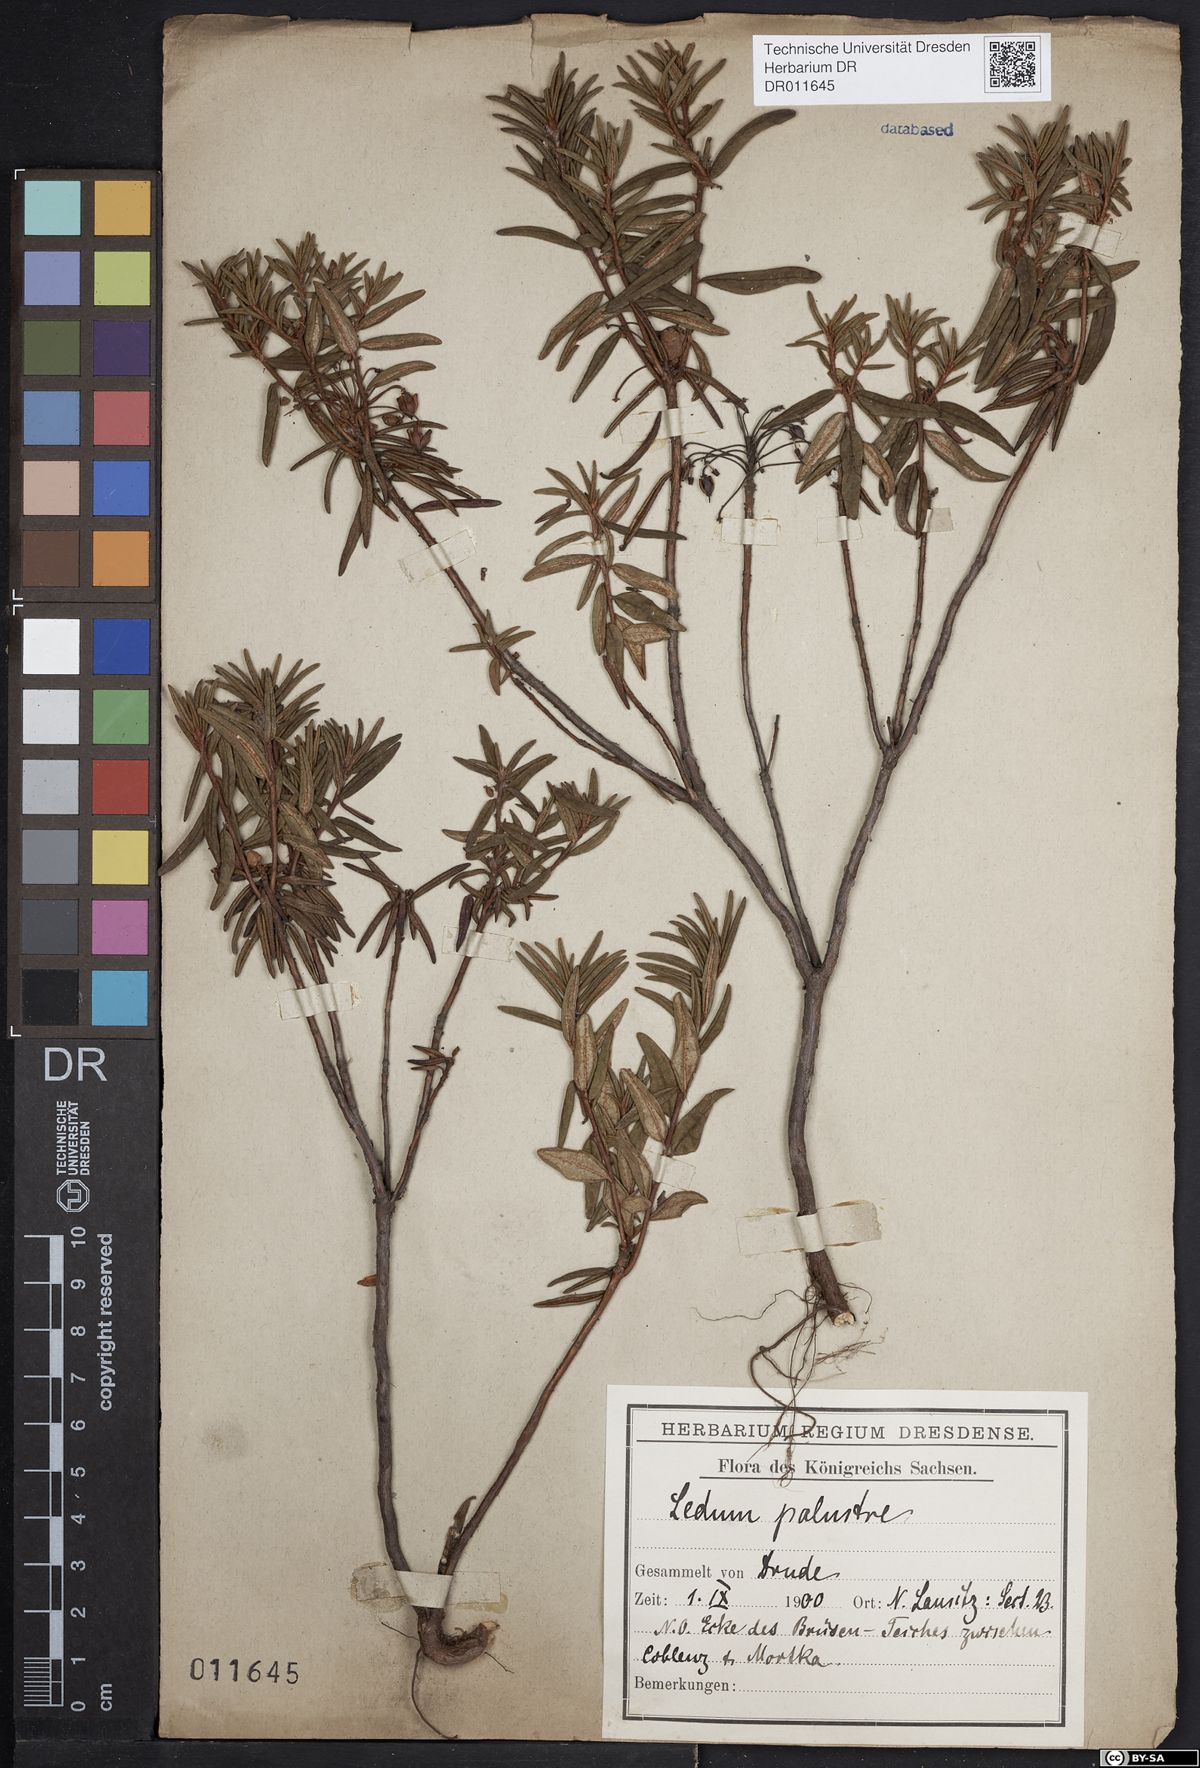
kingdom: Plantae
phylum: Tracheophyta
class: Magnoliopsida
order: Ericales
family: Ericaceae
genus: Rhododendron
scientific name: Rhododendron tomentosum
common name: Marsh labrador tea
